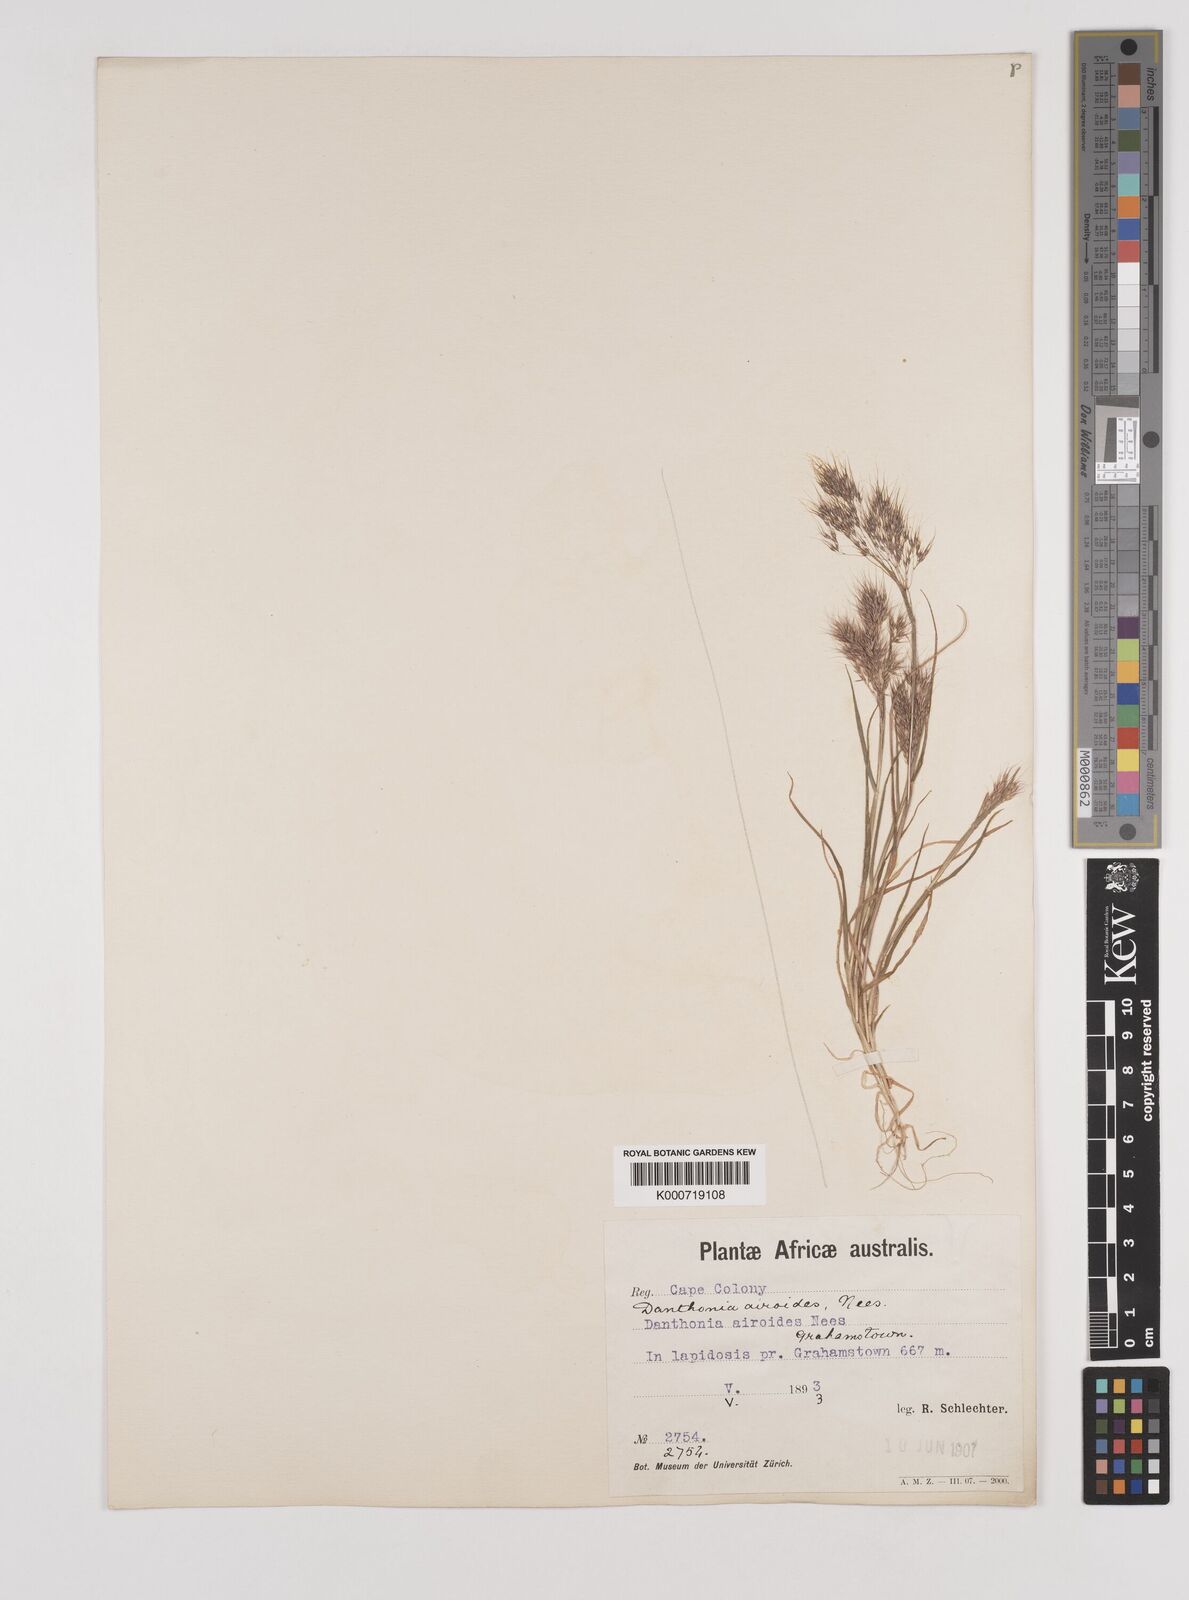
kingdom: Plantae
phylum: Tracheophyta
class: Liliopsida
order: Poales
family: Poaceae
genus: Pentameris
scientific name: Pentameris airoides
